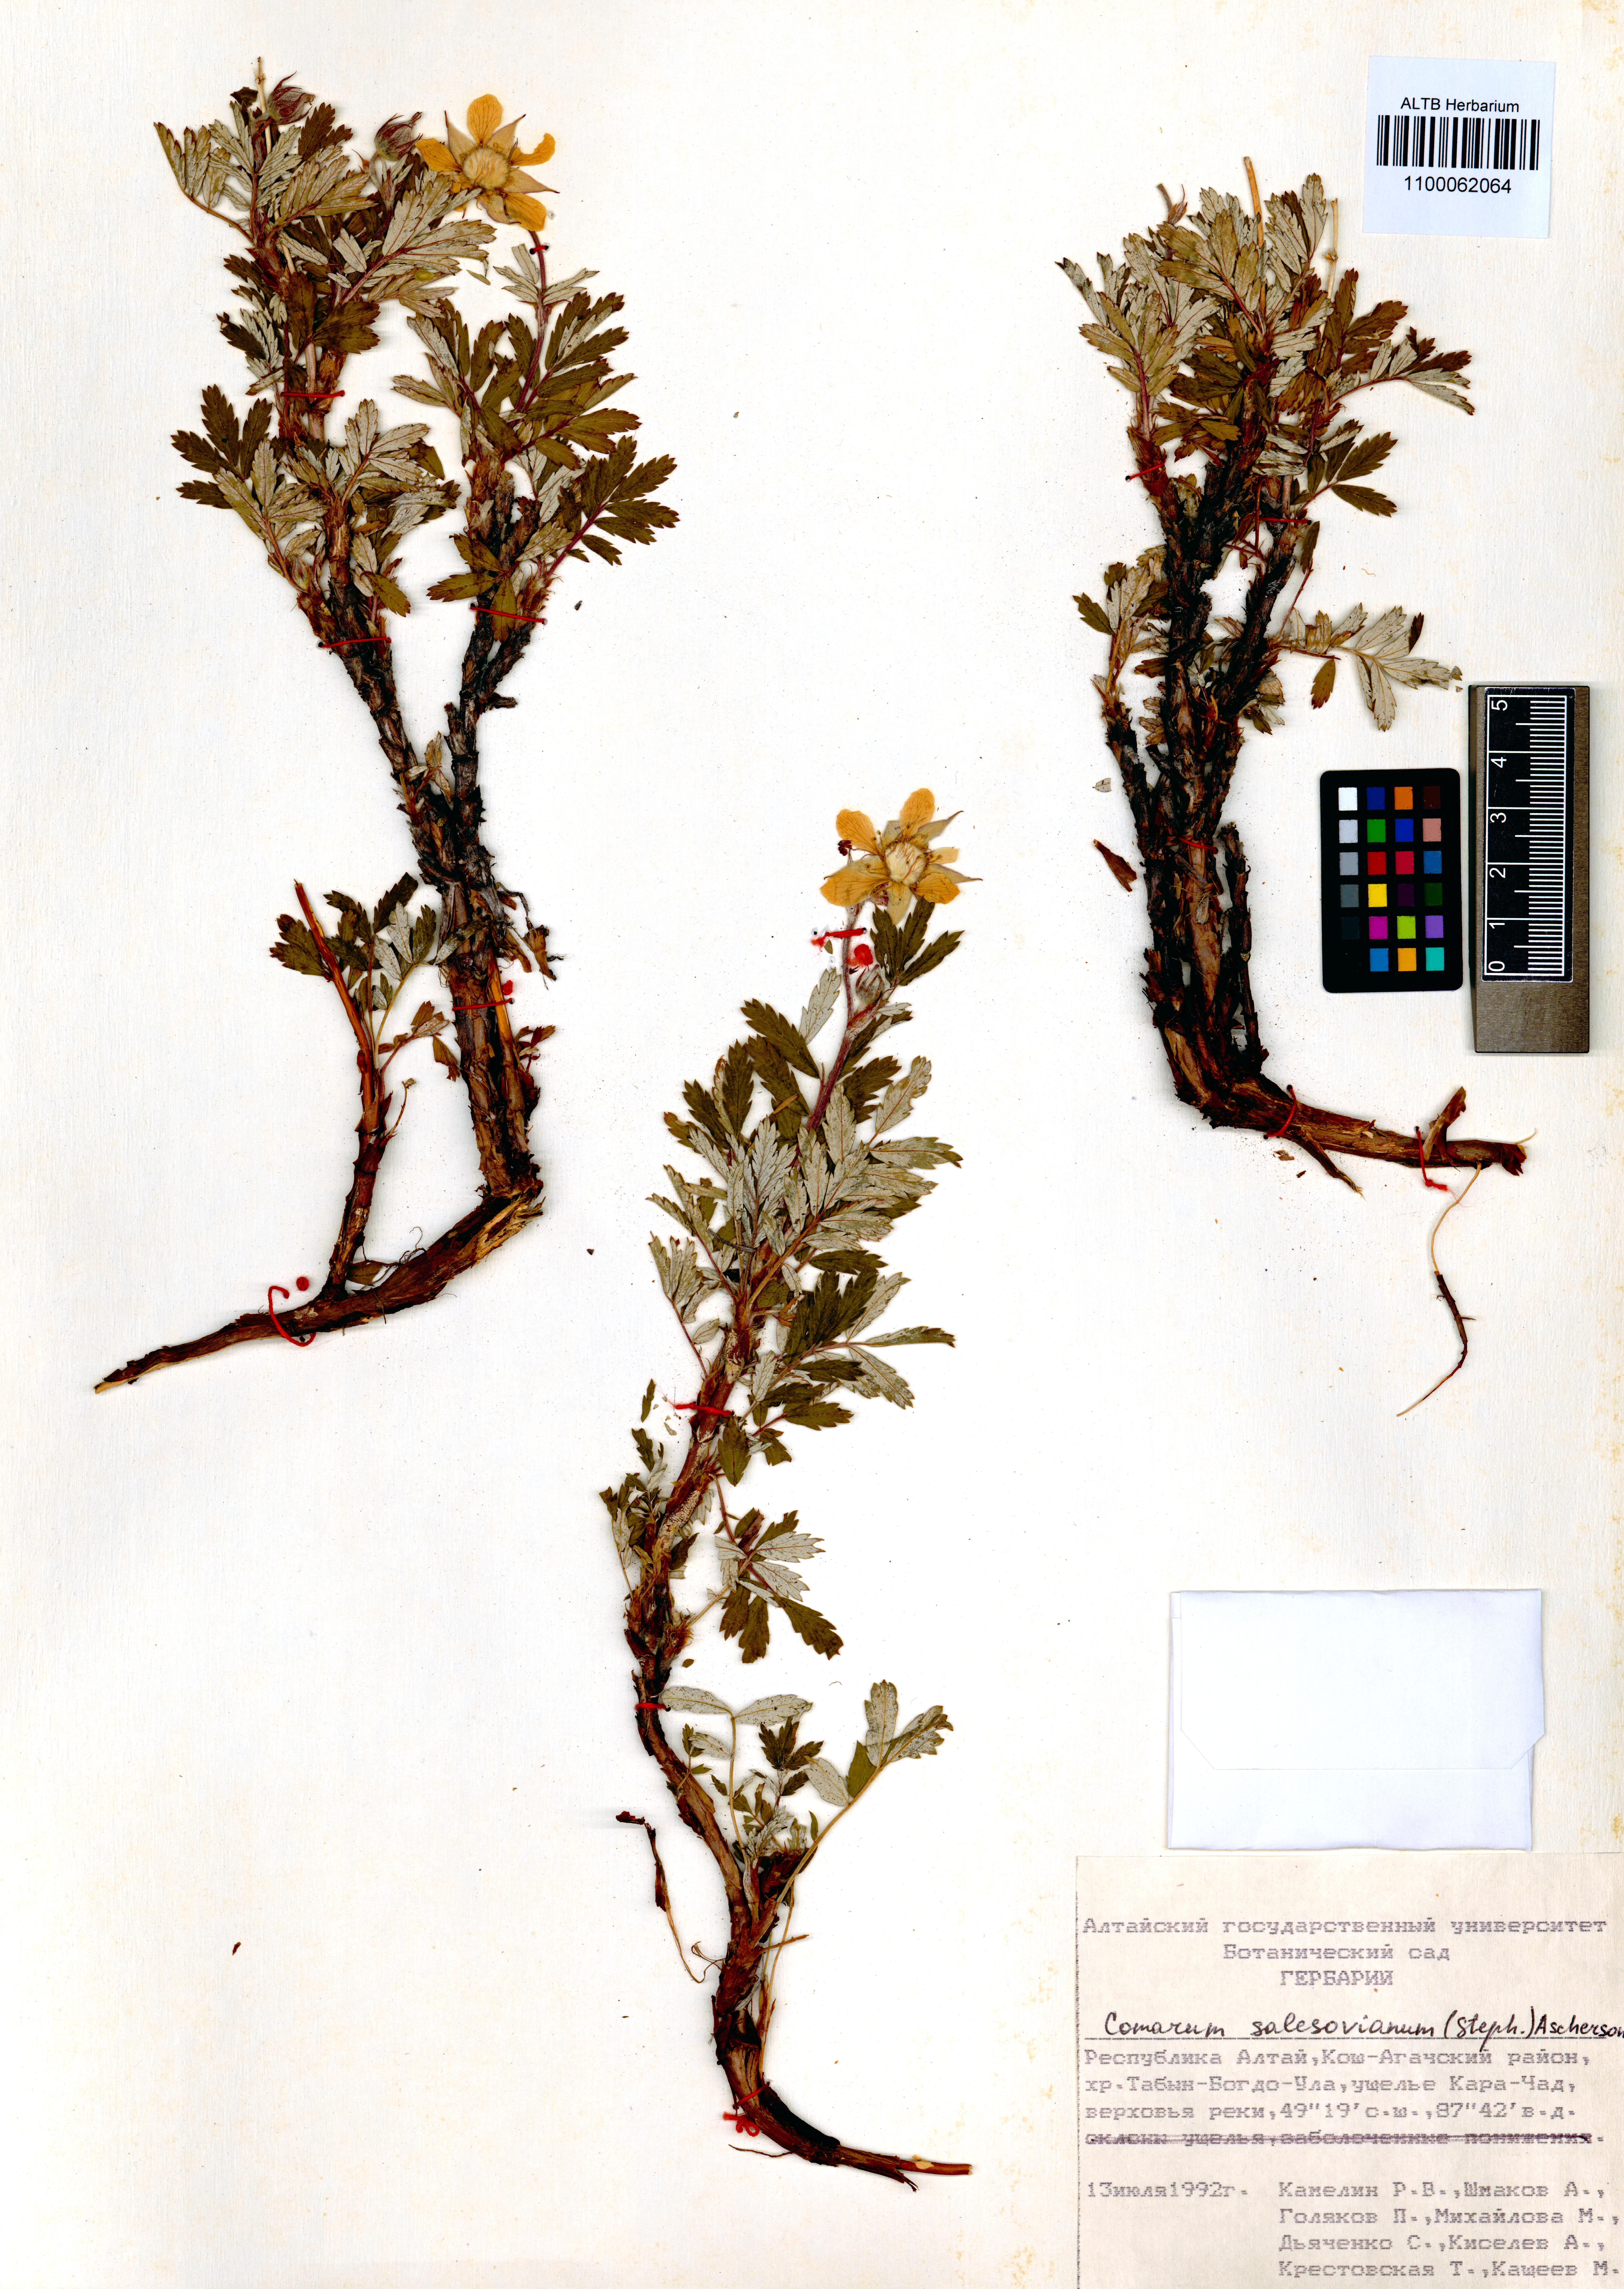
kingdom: Plantae
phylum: Tracheophyta
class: Magnoliopsida
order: Rosales
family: Rosaceae
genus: Farinopsis
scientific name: Farinopsis salesoviana
